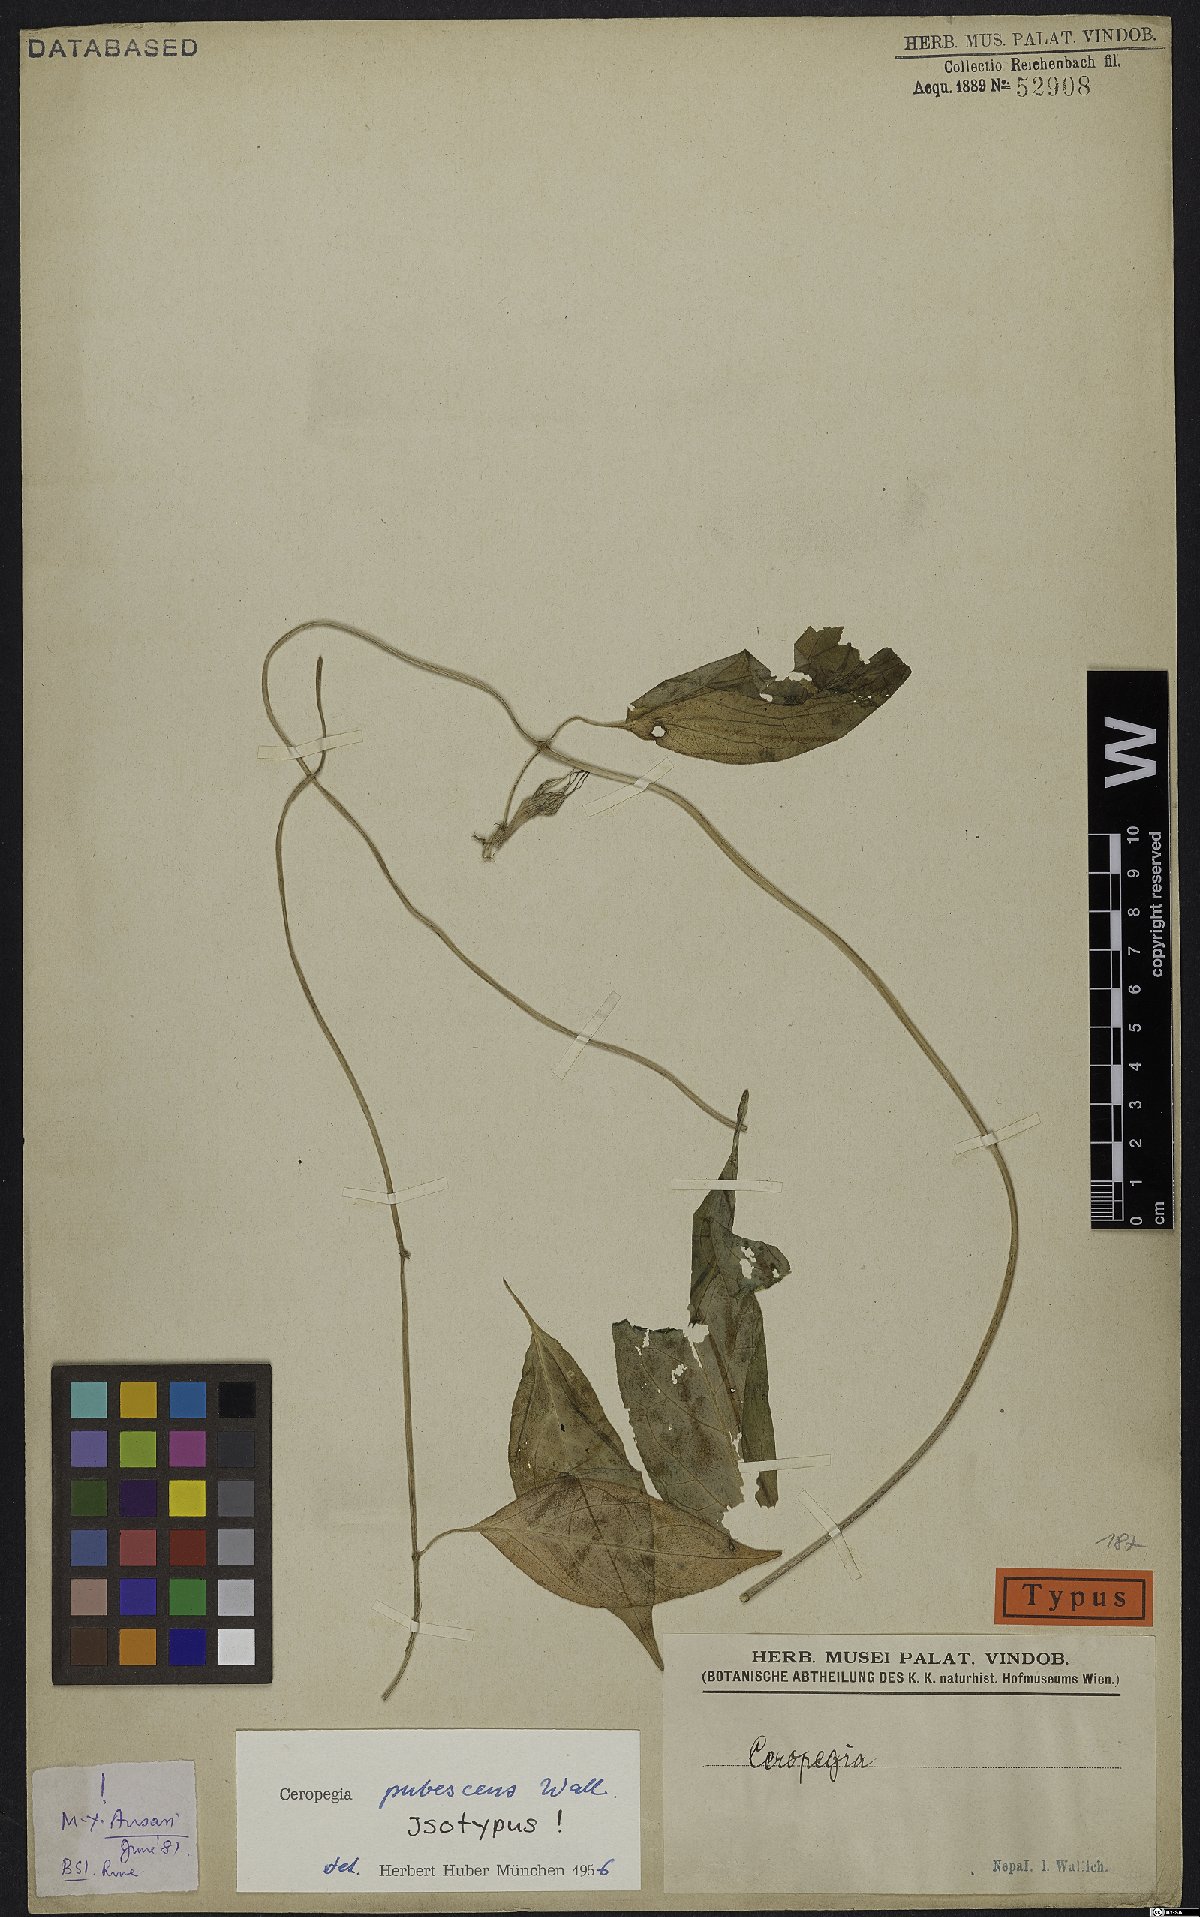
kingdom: Plantae
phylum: Tracheophyta
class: Magnoliopsida
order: Gentianales
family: Apocynaceae
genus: Ceropegia
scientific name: Ceropegia pubescens
